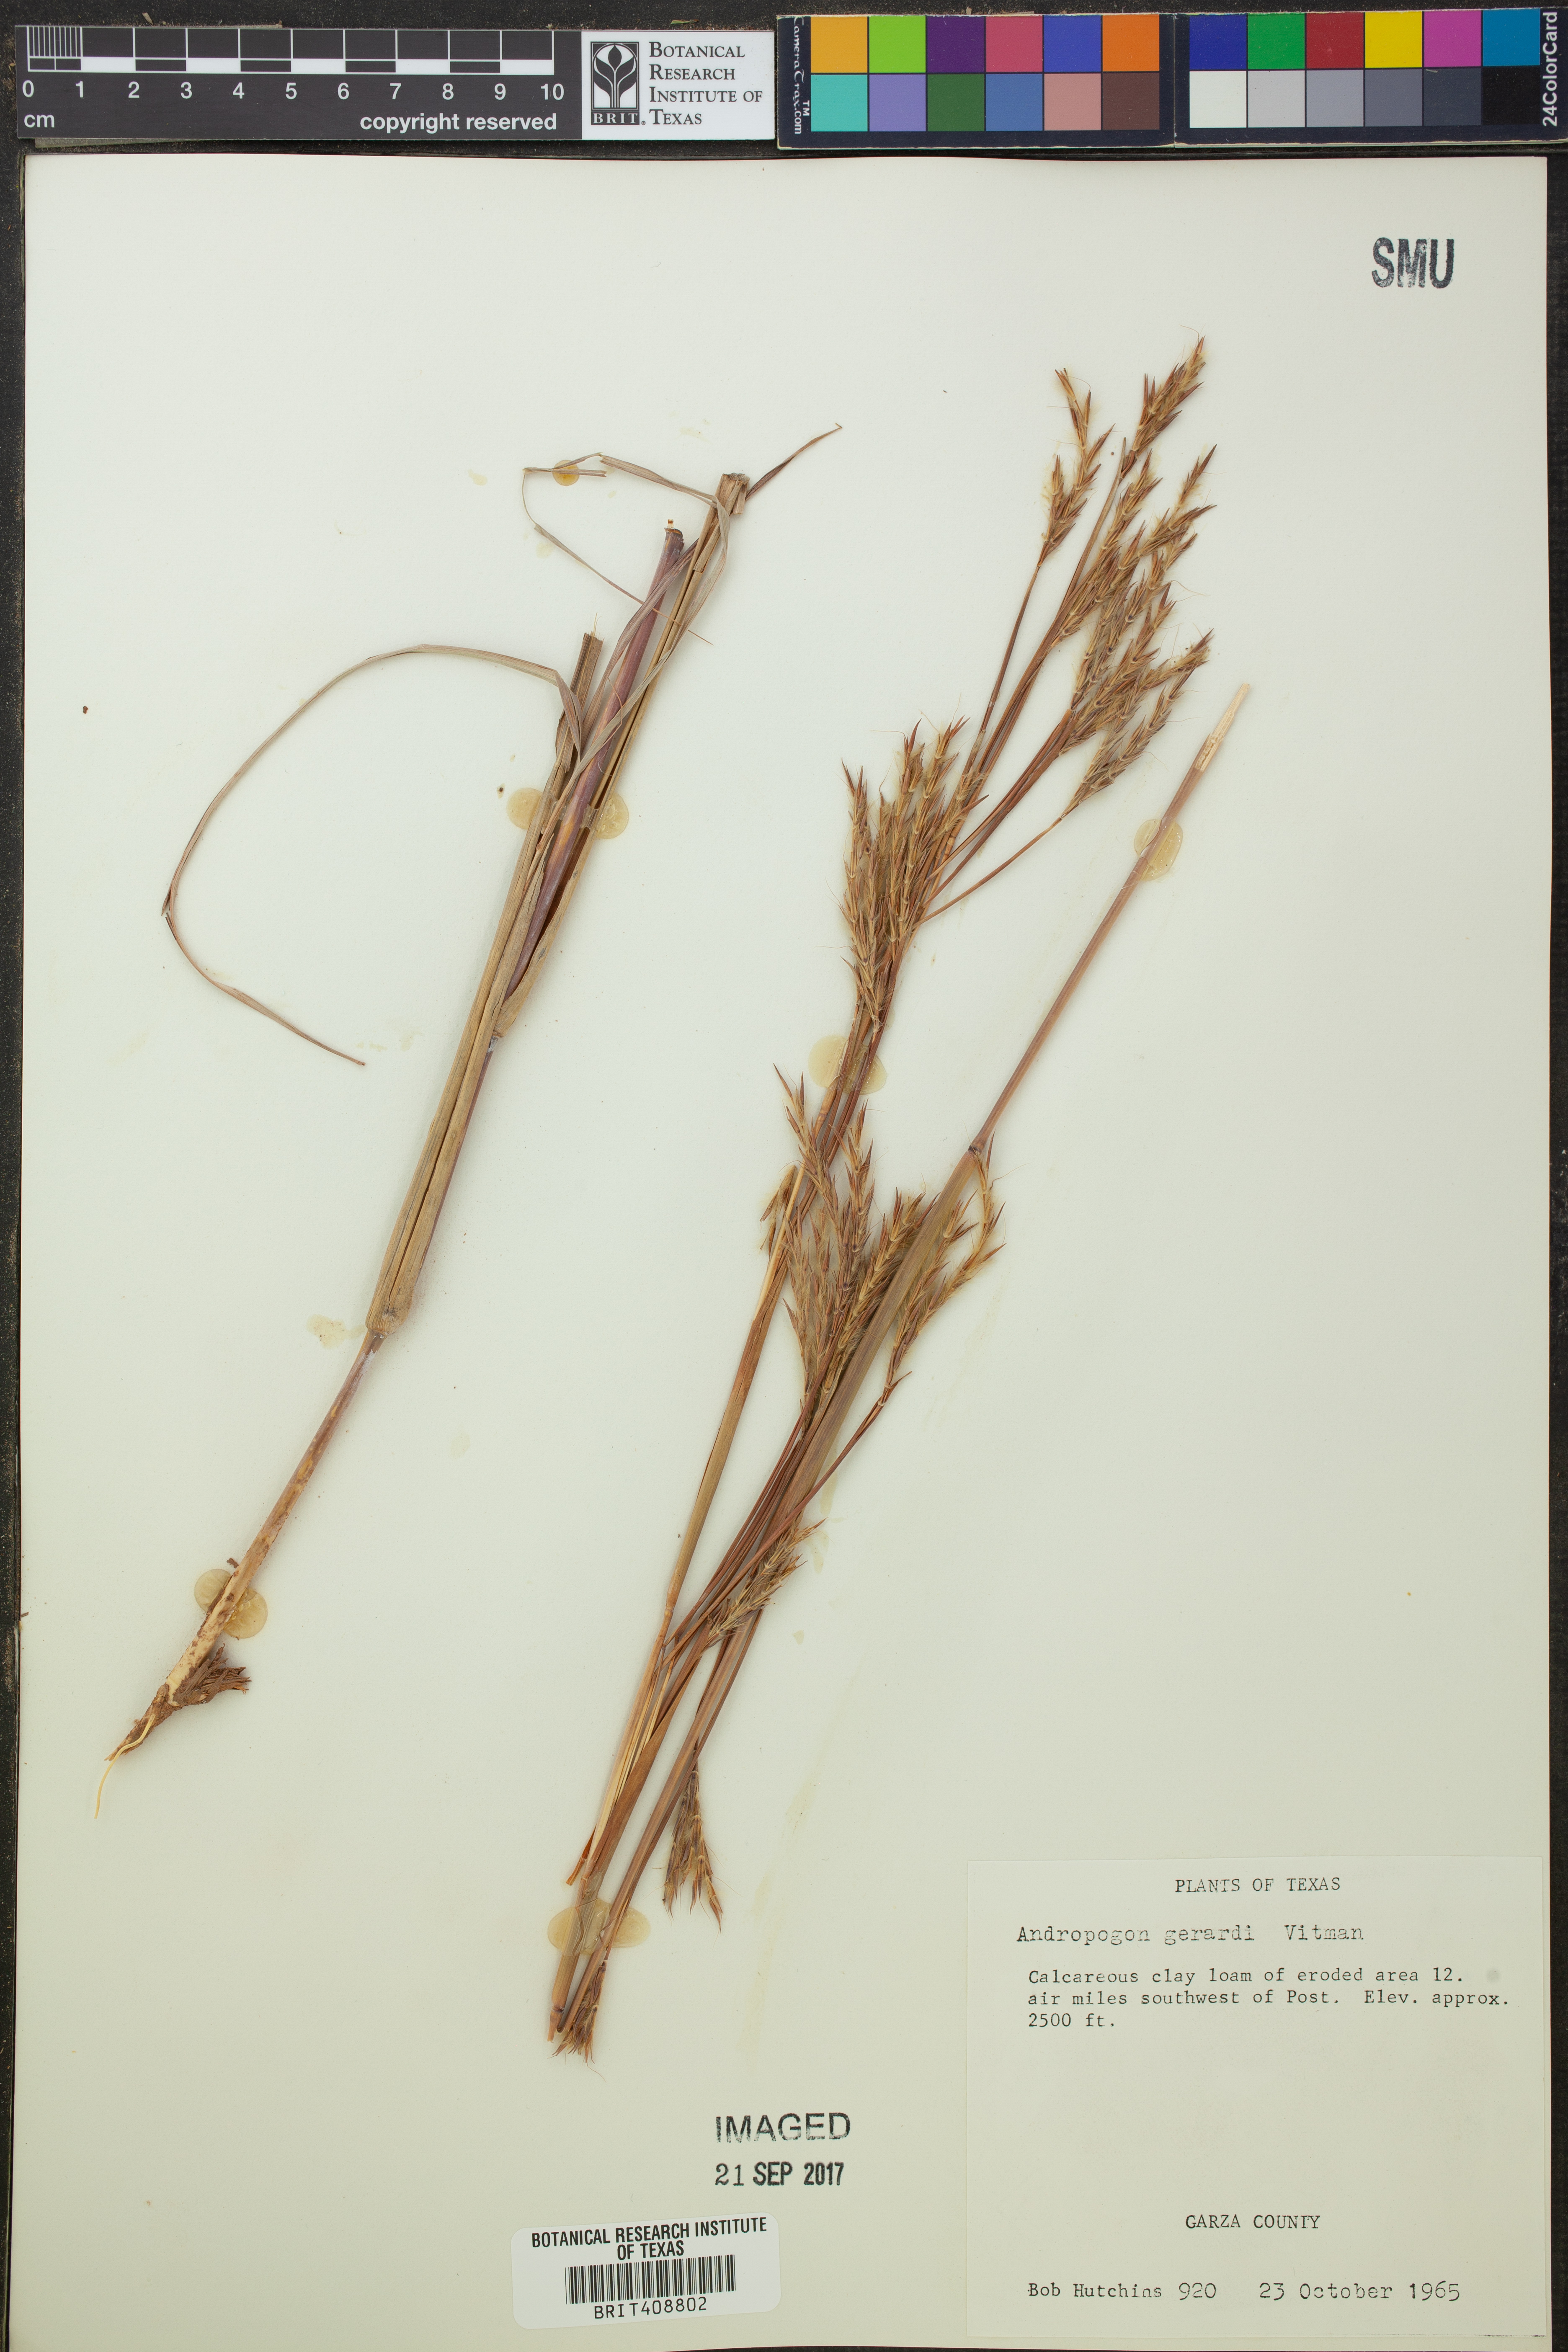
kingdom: Plantae
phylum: Tracheophyta
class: Liliopsida
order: Poales
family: Poaceae
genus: Andropogon
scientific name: Andropogon gerardi
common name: Big bluestem
